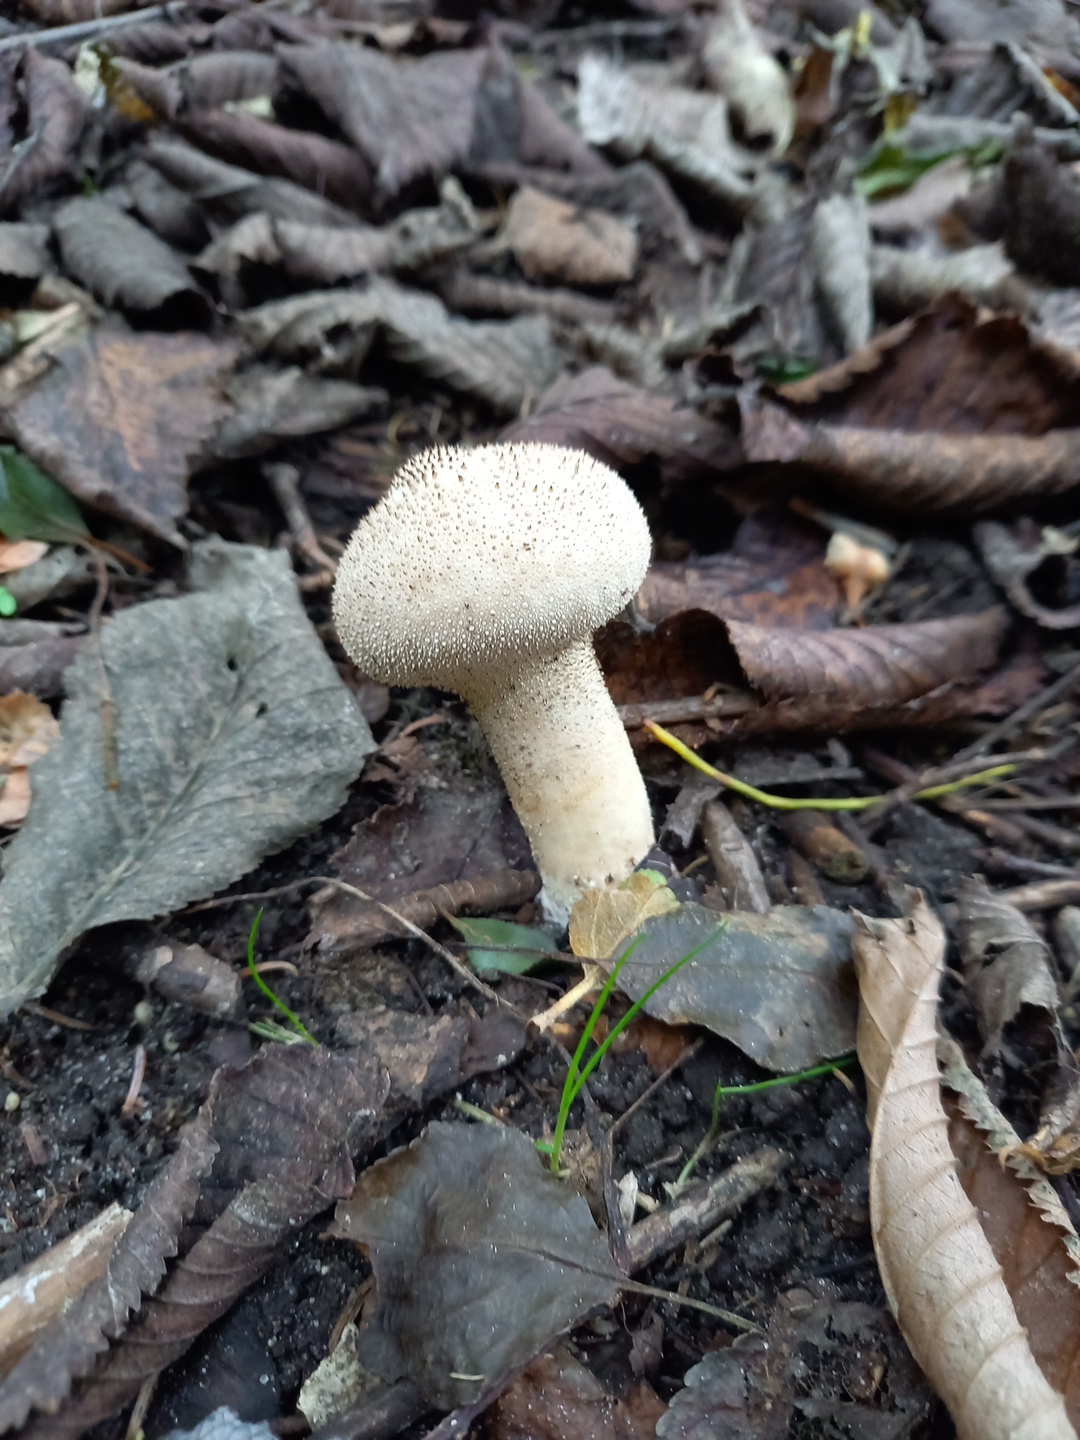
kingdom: Fungi
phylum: Basidiomycota
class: Agaricomycetes
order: Agaricales
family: Lycoperdaceae
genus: Lycoperdon
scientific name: Lycoperdon perlatum
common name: krystal-støvbold
